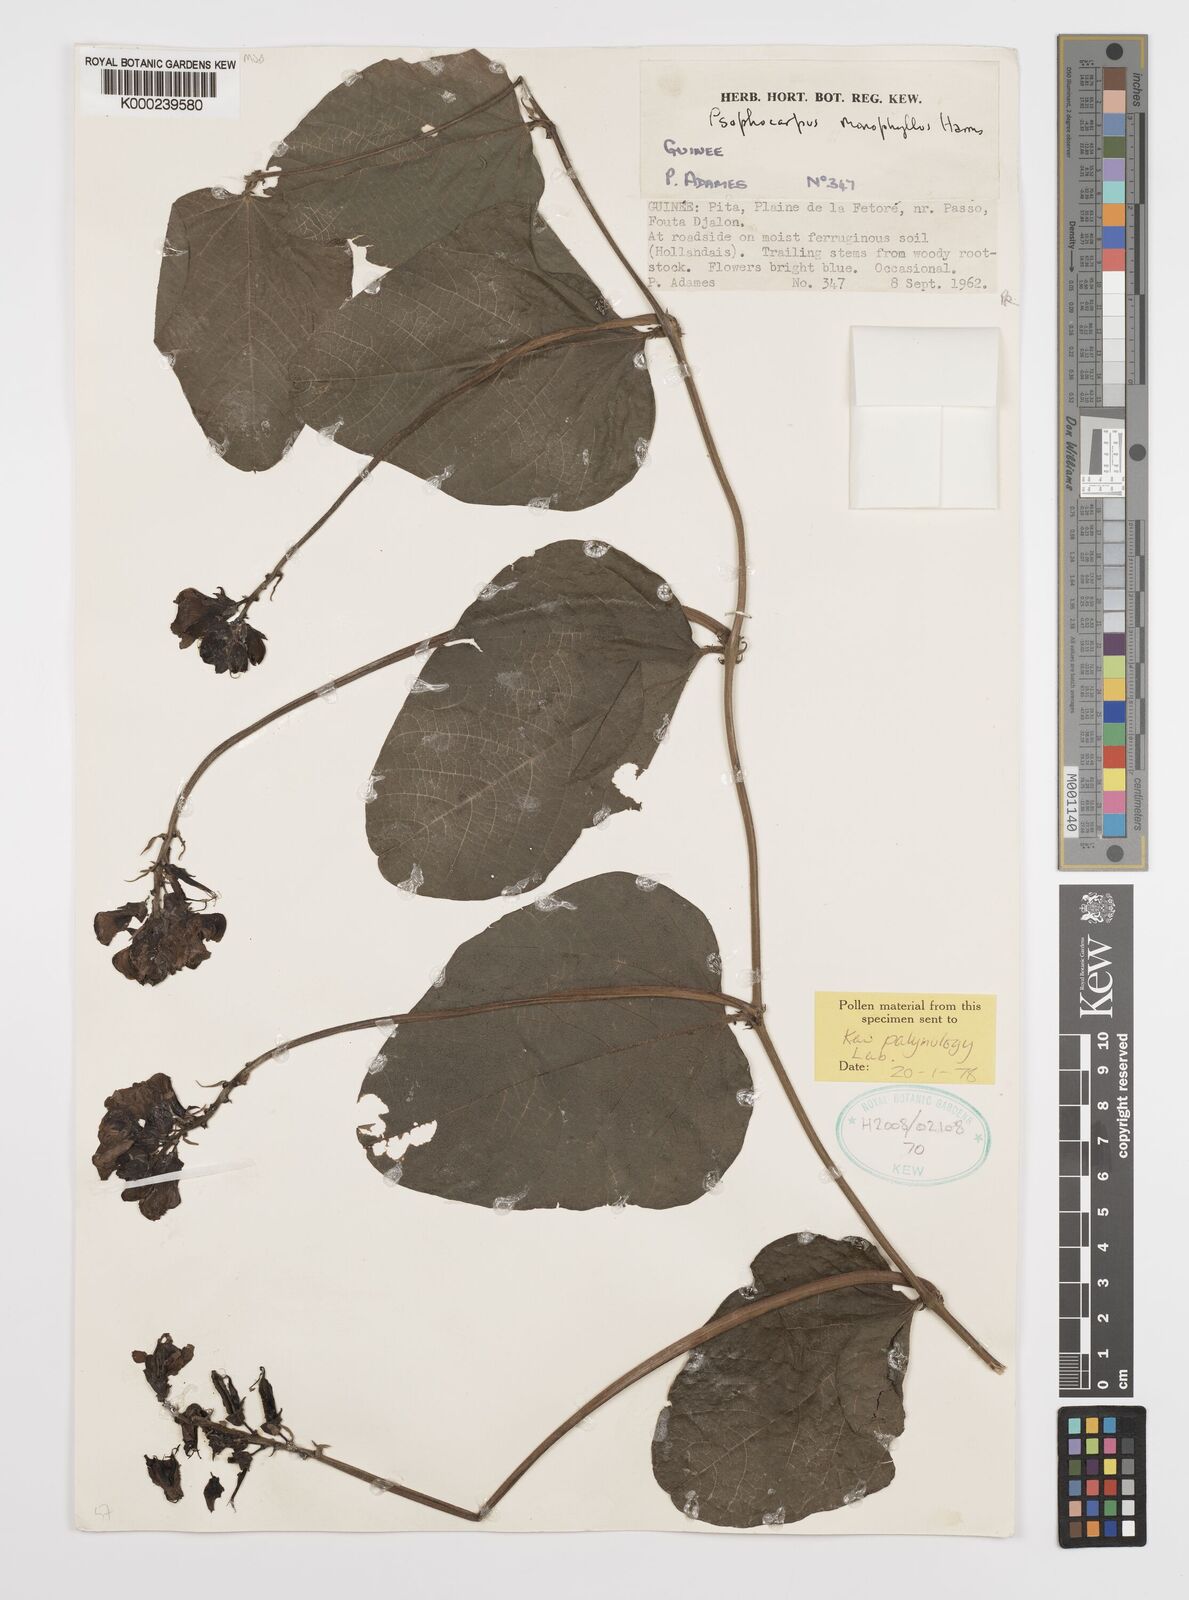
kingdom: Plantae
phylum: Tracheophyta
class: Magnoliopsida
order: Fabales
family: Fabaceae
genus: Psophocarpus
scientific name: Psophocarpus monophyllus
